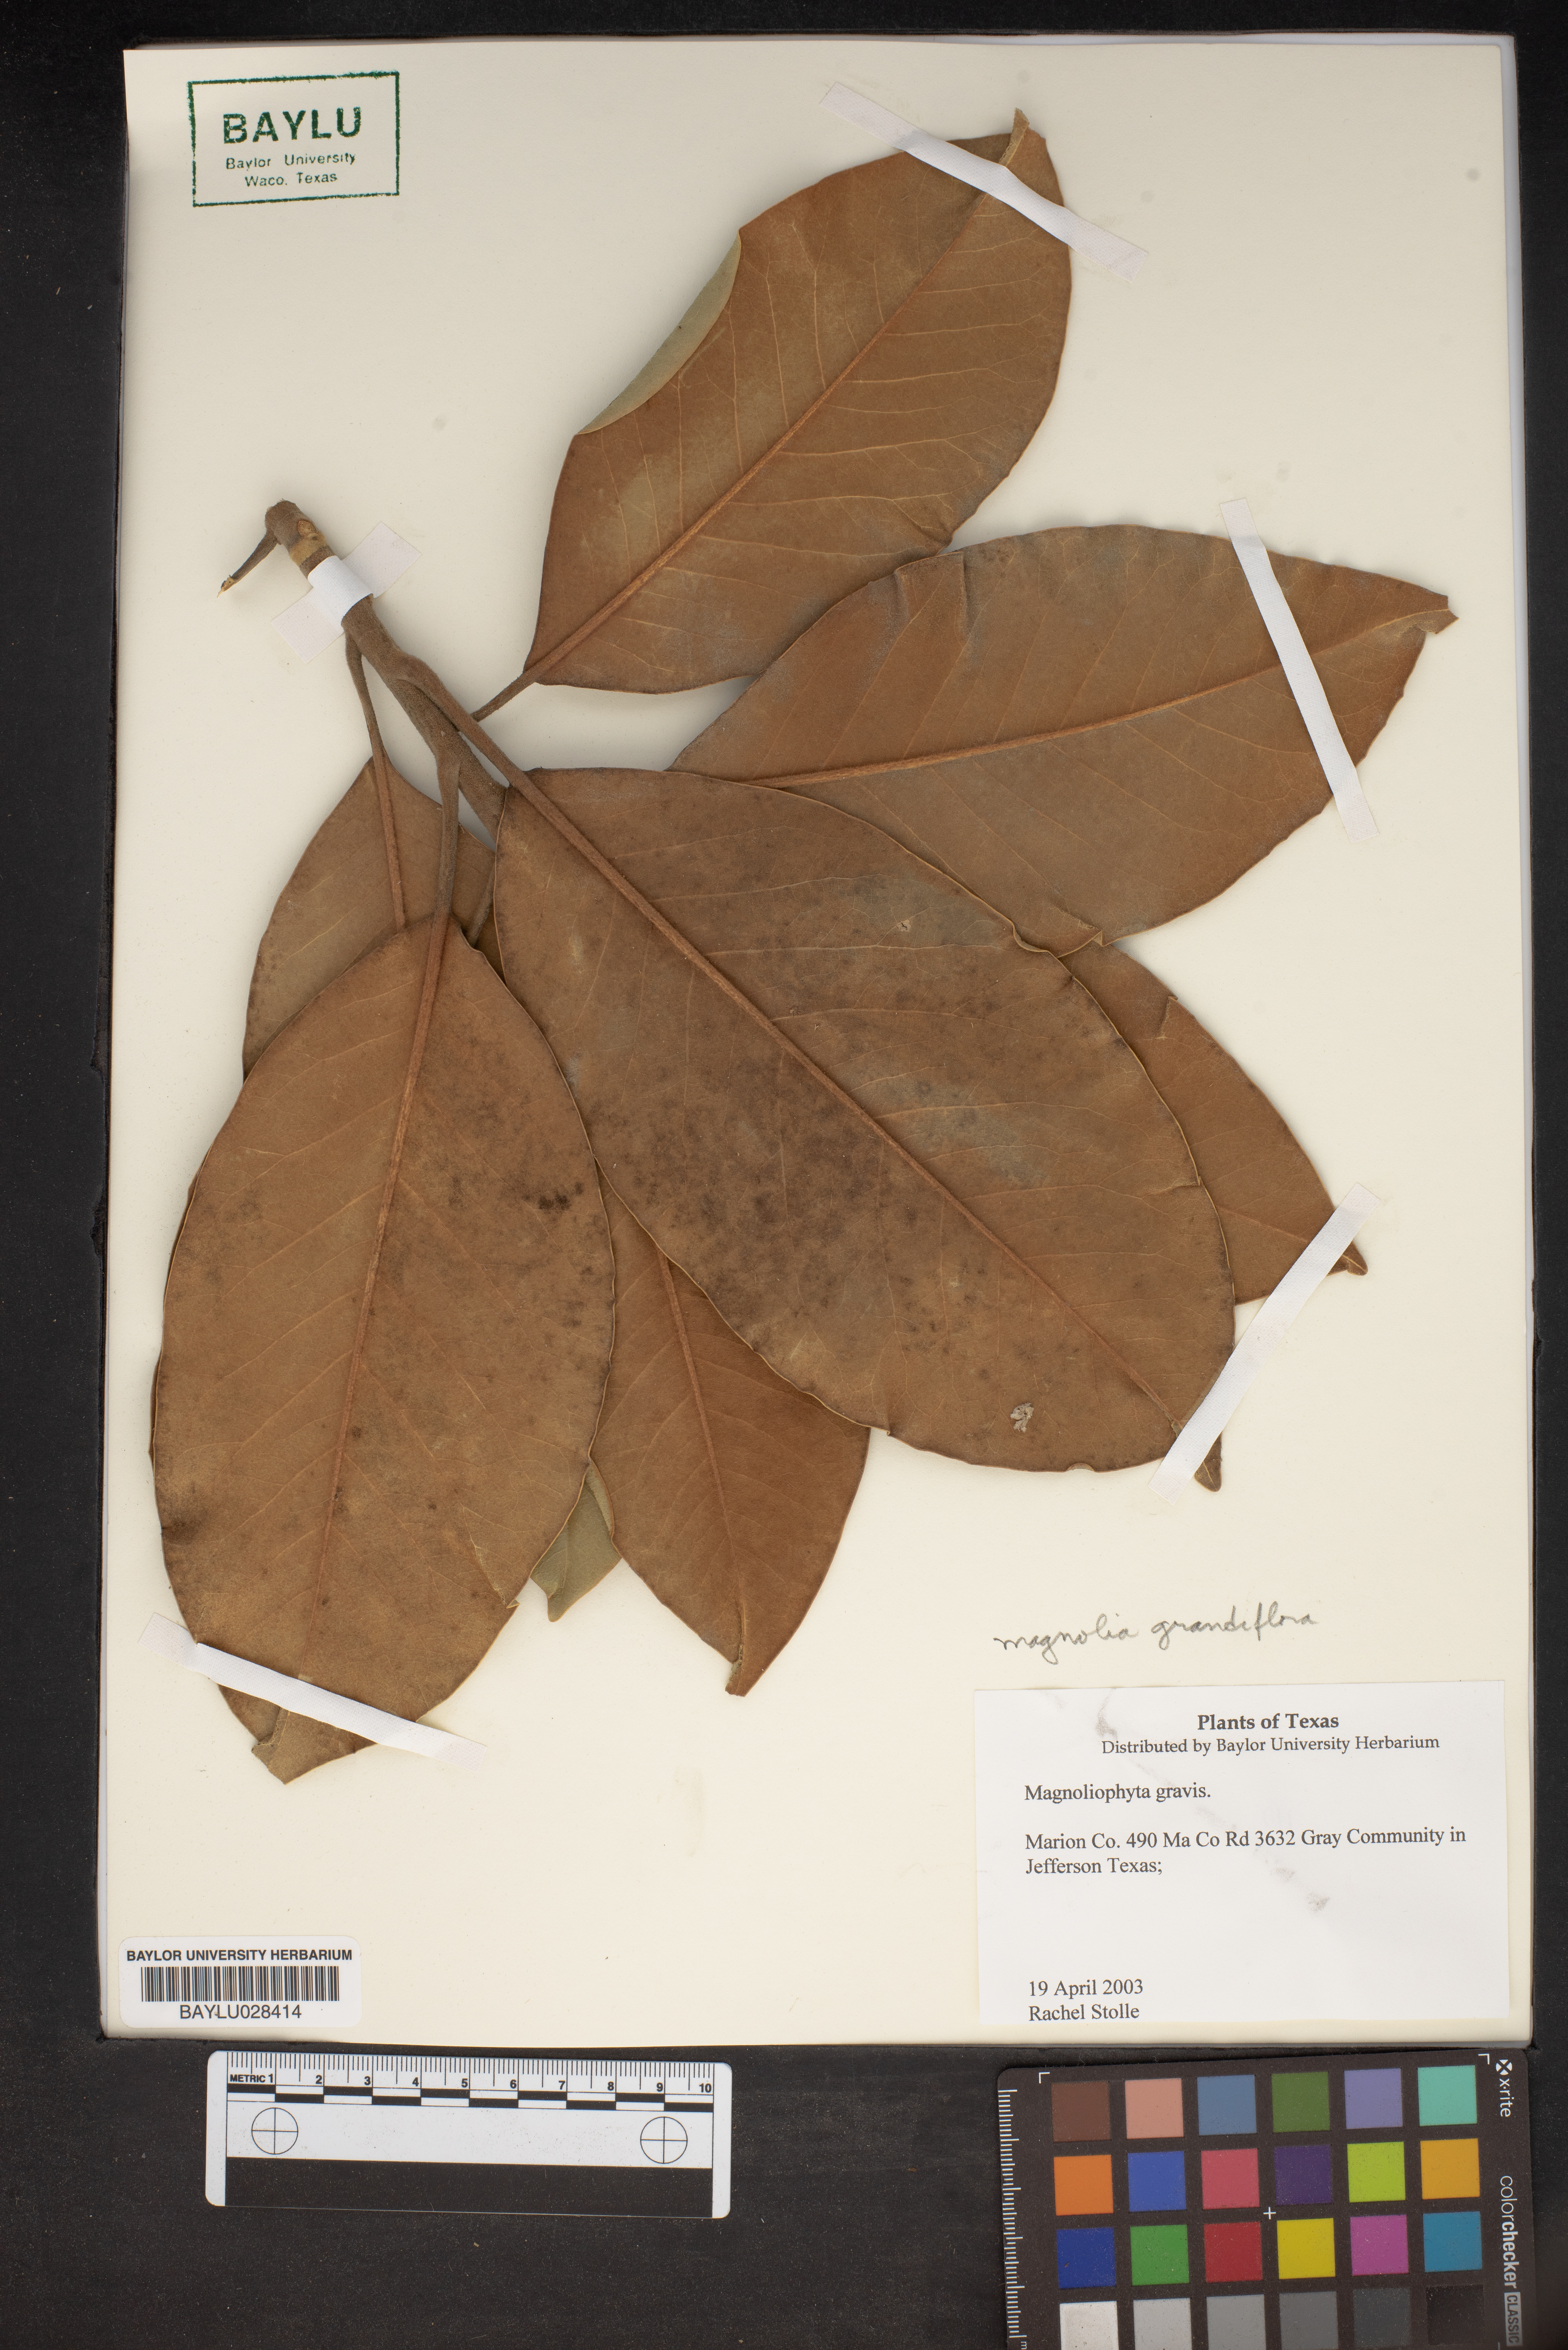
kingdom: Plantae
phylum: Tracheophyta
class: Magnoliopsida
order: Magnoliales
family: Magnoliaceae
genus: Magnolia
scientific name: Magnolia grandiflora
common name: Southern magnolia
